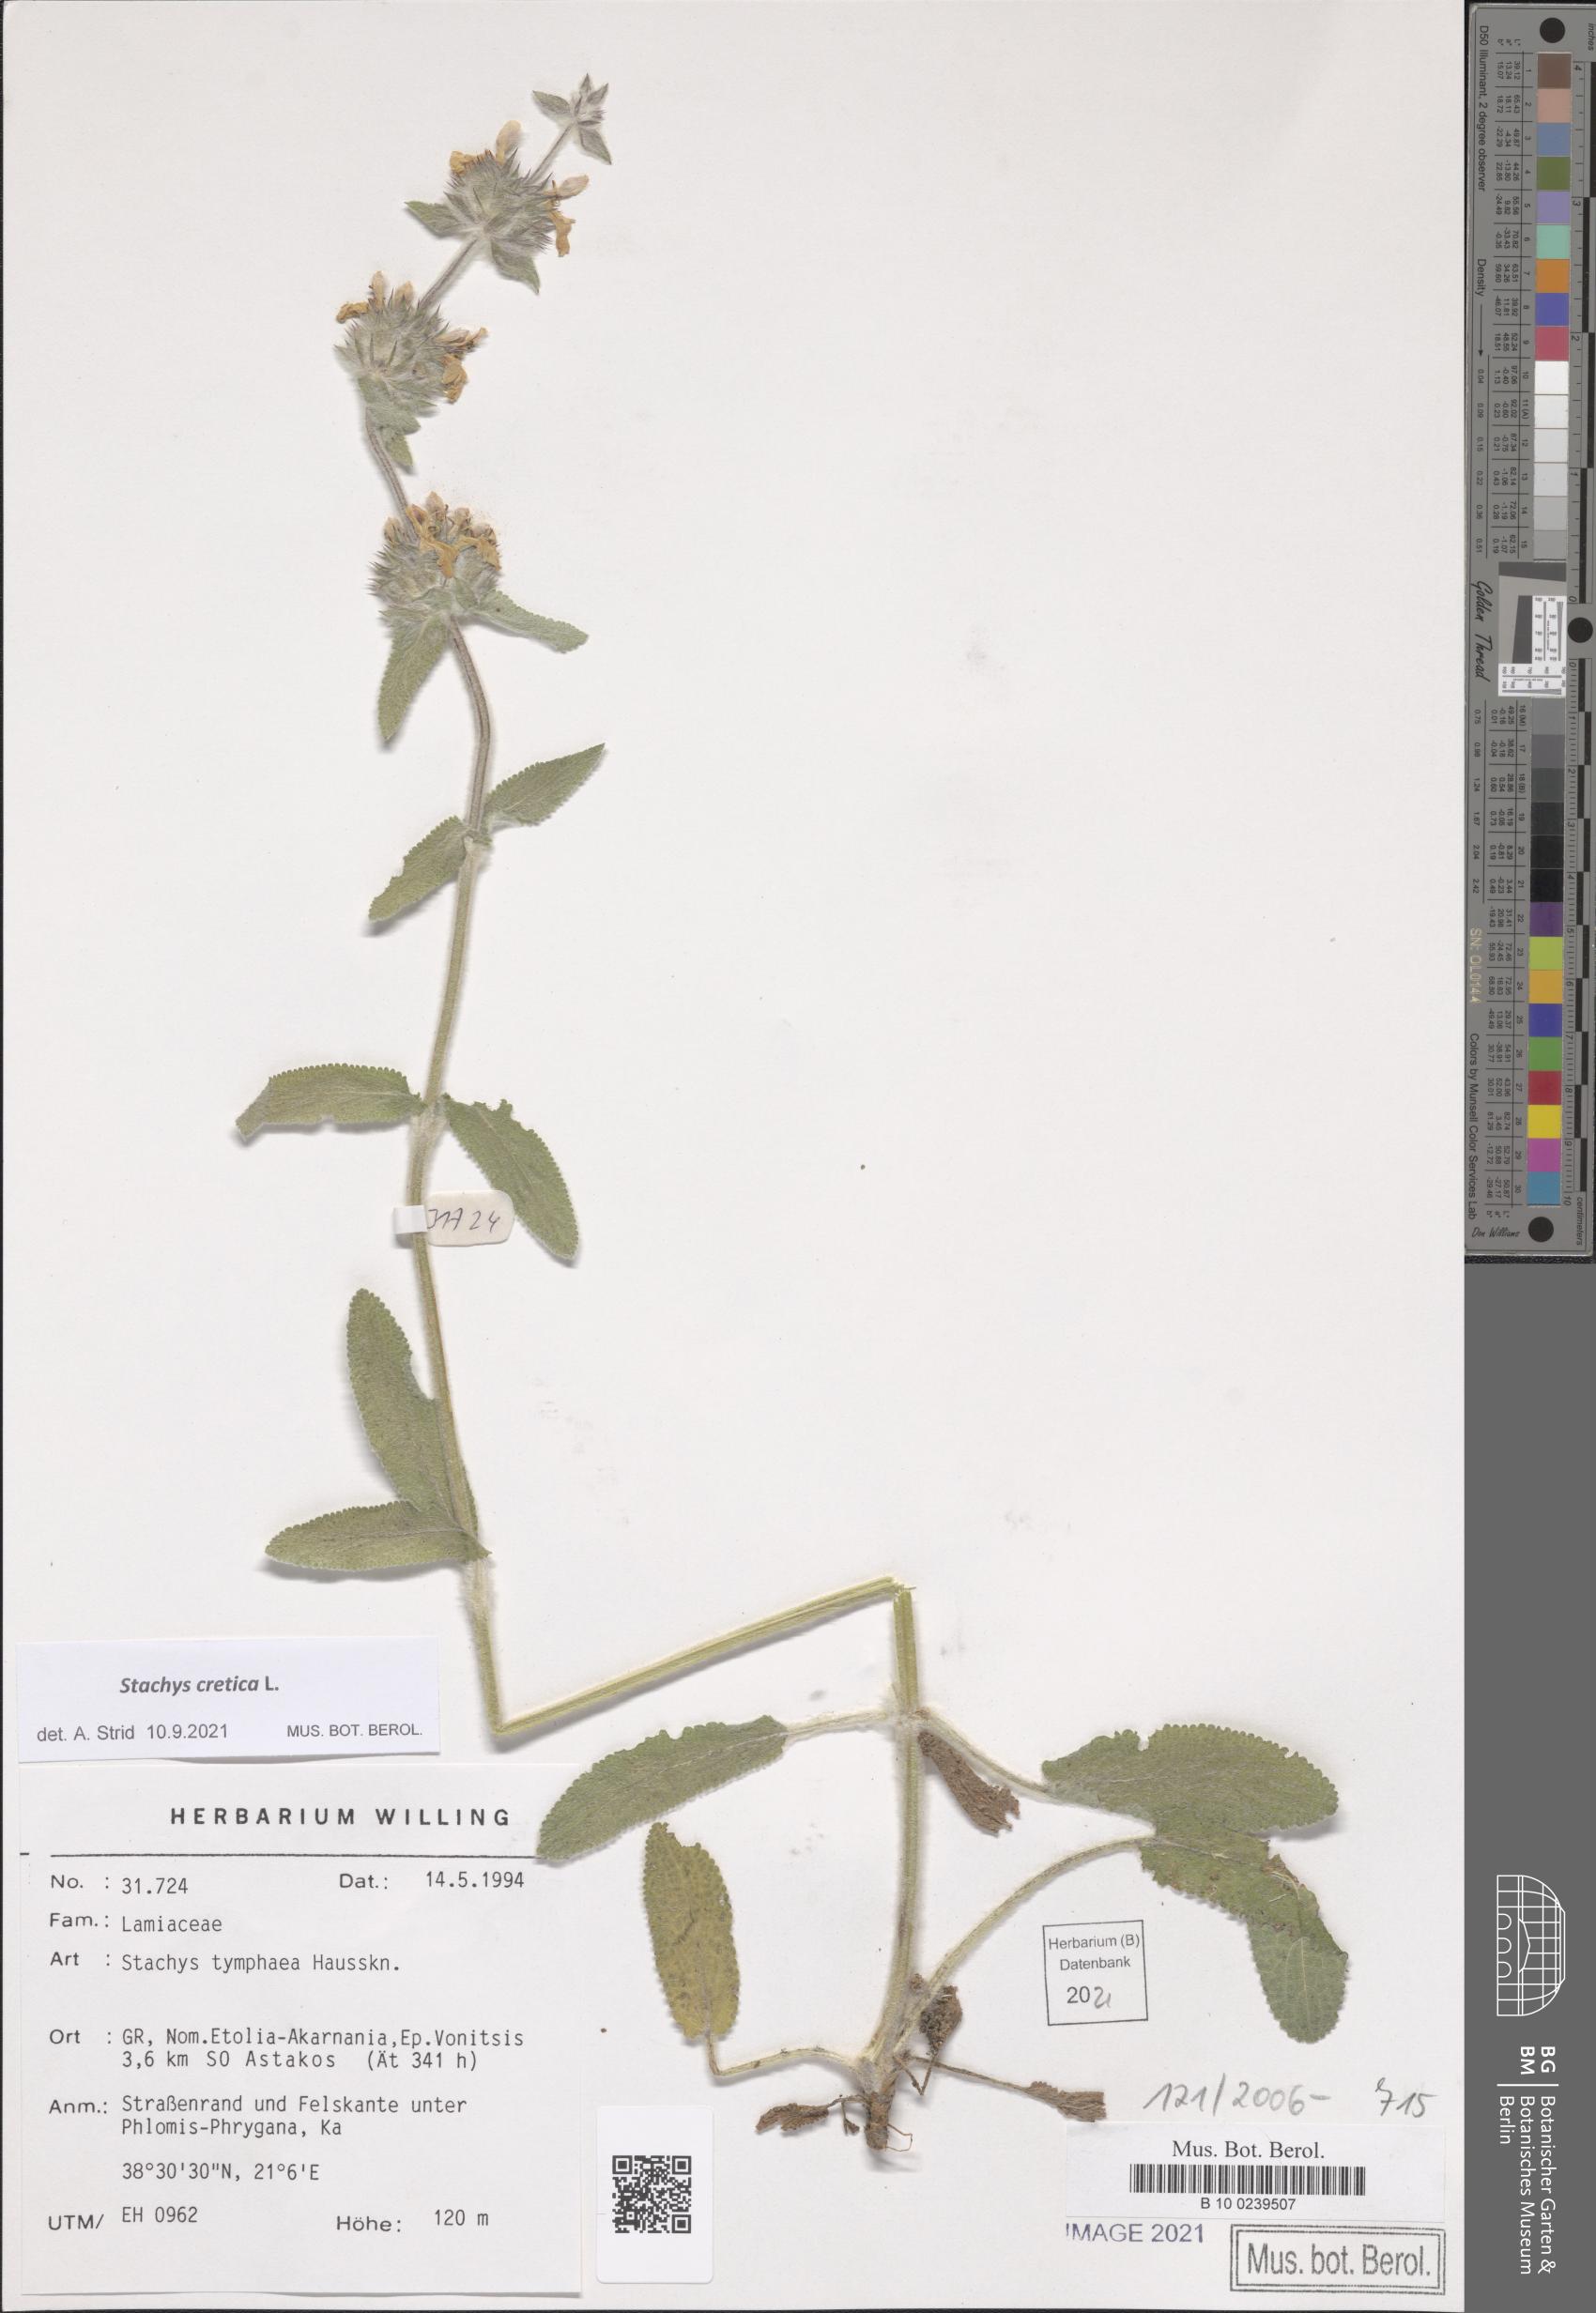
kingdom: Plantae
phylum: Tracheophyta
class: Magnoliopsida
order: Lamiales
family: Lamiaceae
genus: Stachys
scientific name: Stachys cretica
